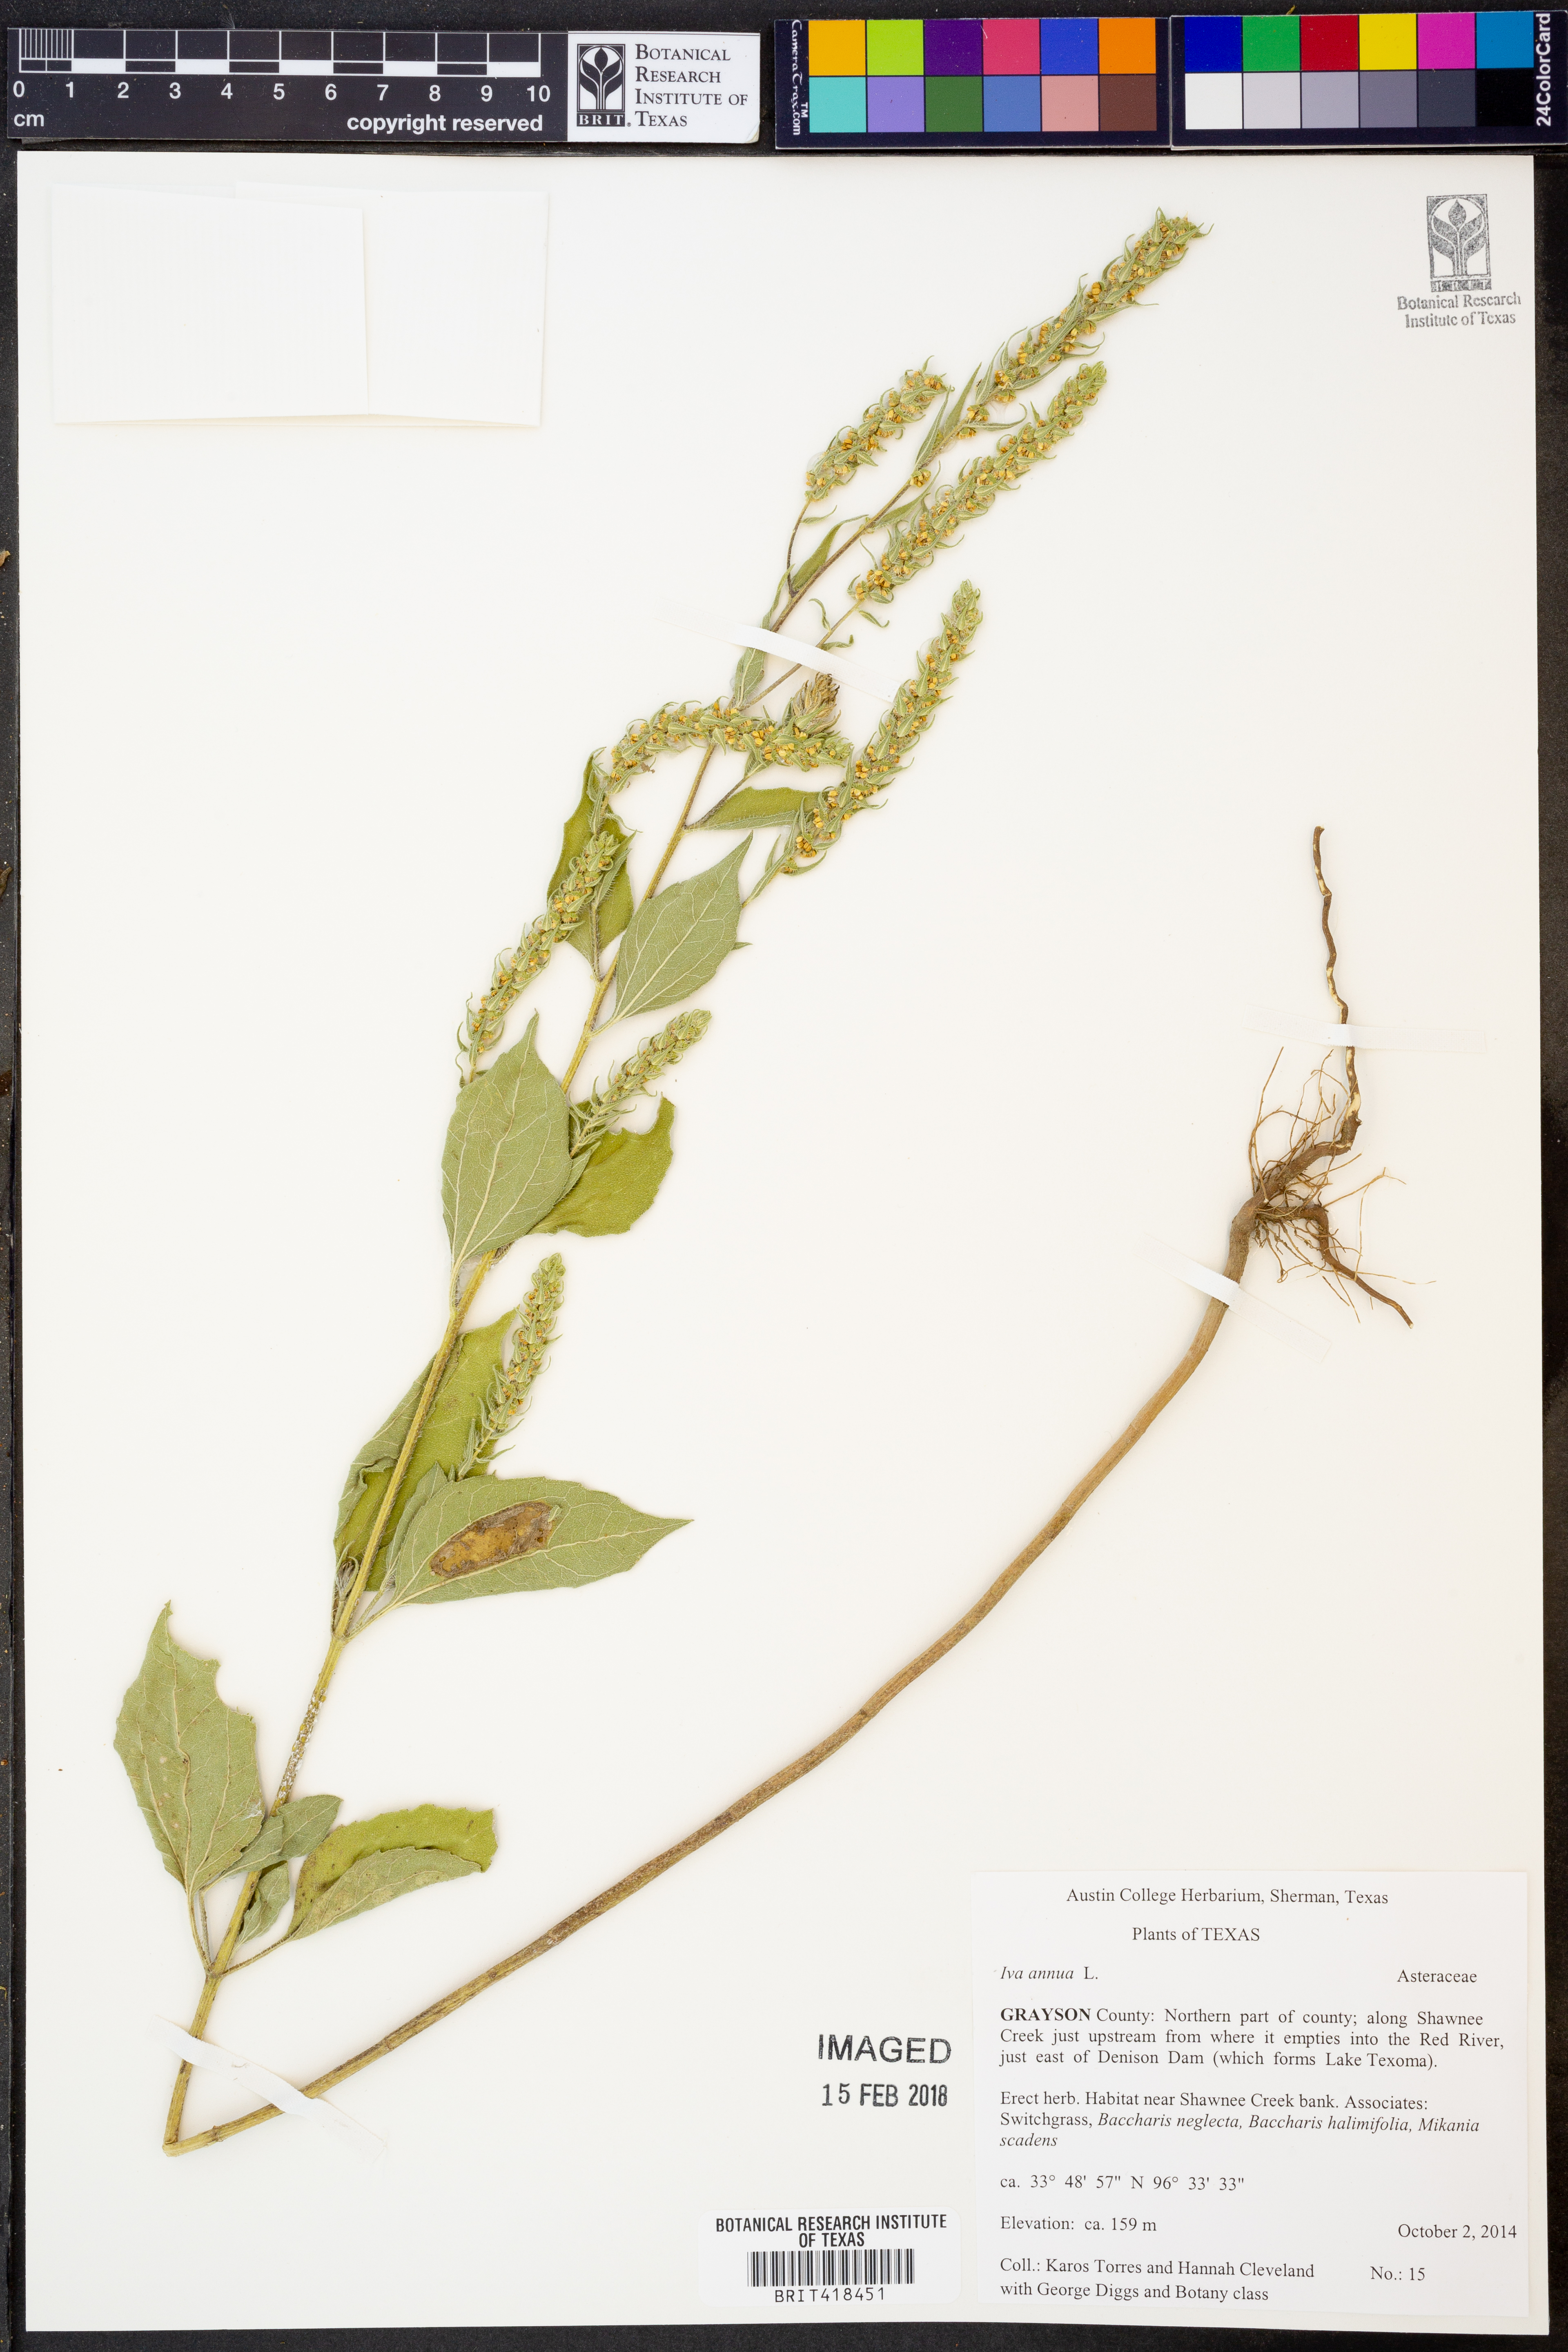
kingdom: Plantae
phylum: Tracheophyta
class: Magnoliopsida
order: Asterales
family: Asteraceae
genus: Iva
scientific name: Iva annua
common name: Marsh-elder
